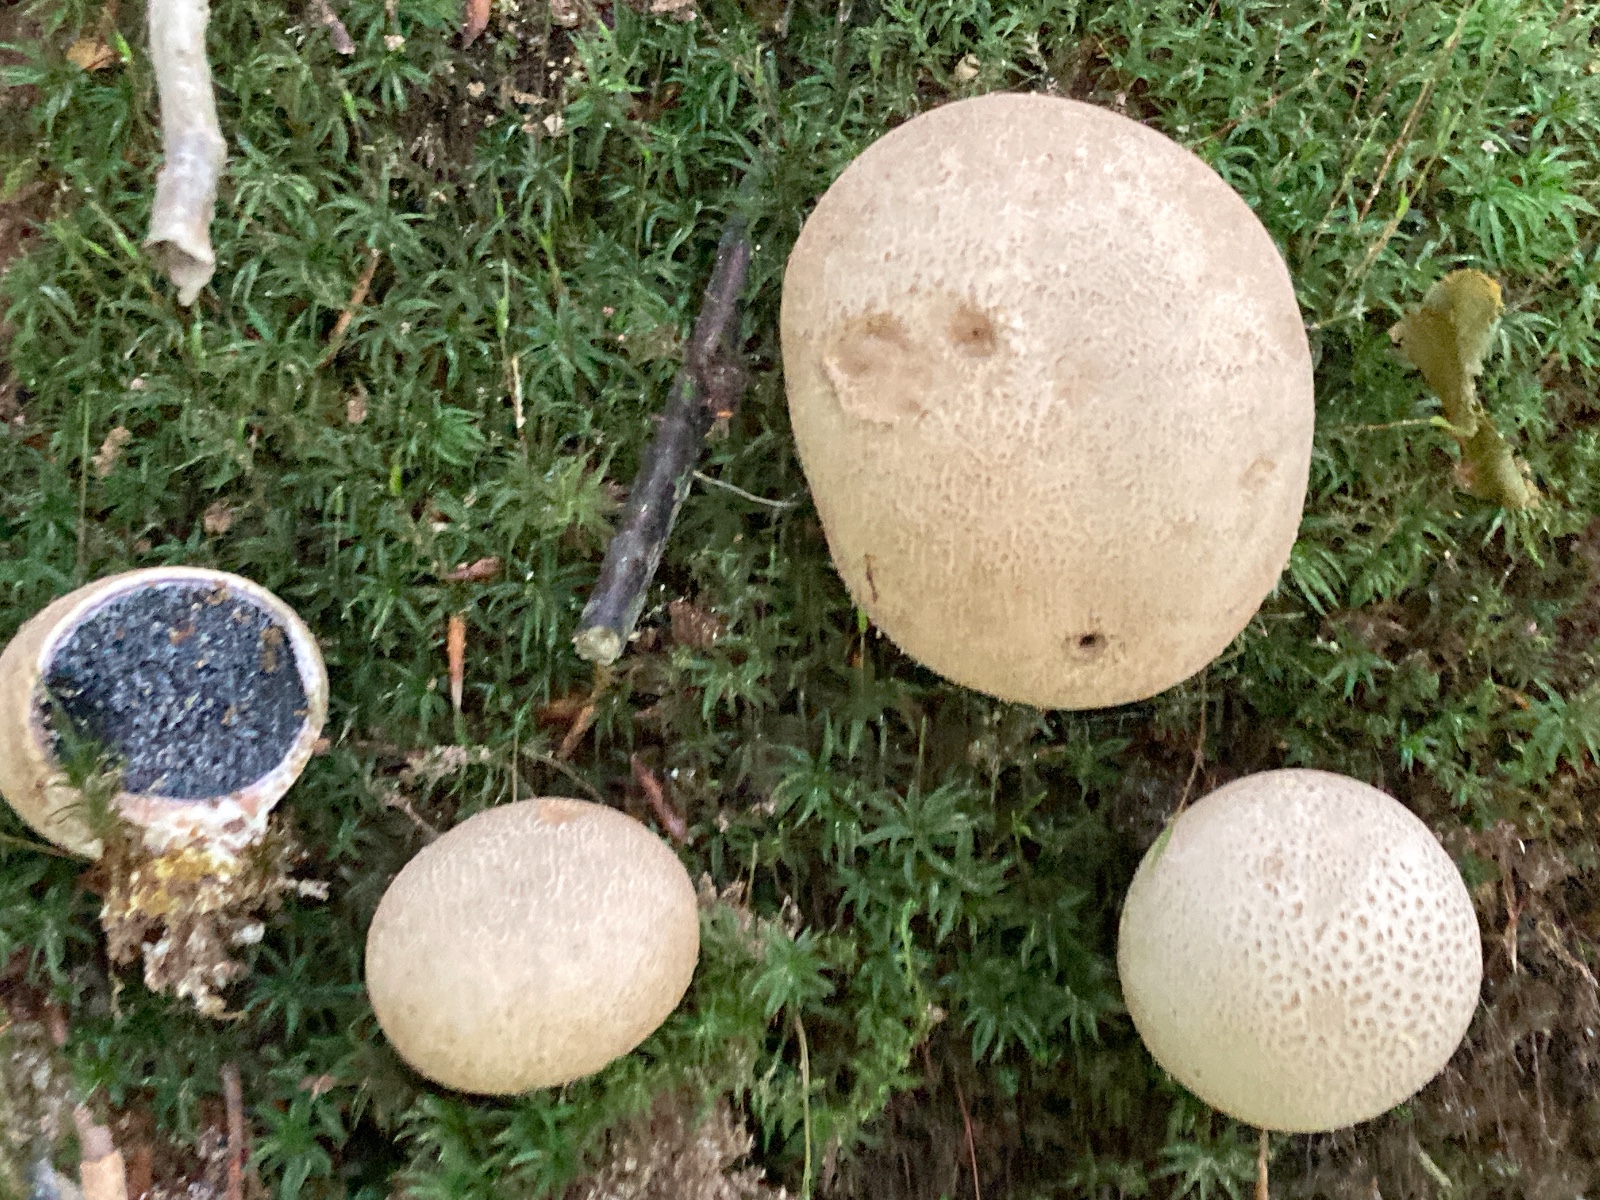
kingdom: Fungi
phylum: Basidiomycota
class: Agaricomycetes
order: Boletales
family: Sclerodermataceae
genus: Scleroderma
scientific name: Scleroderma citrinum
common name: almindelig bruskbold
